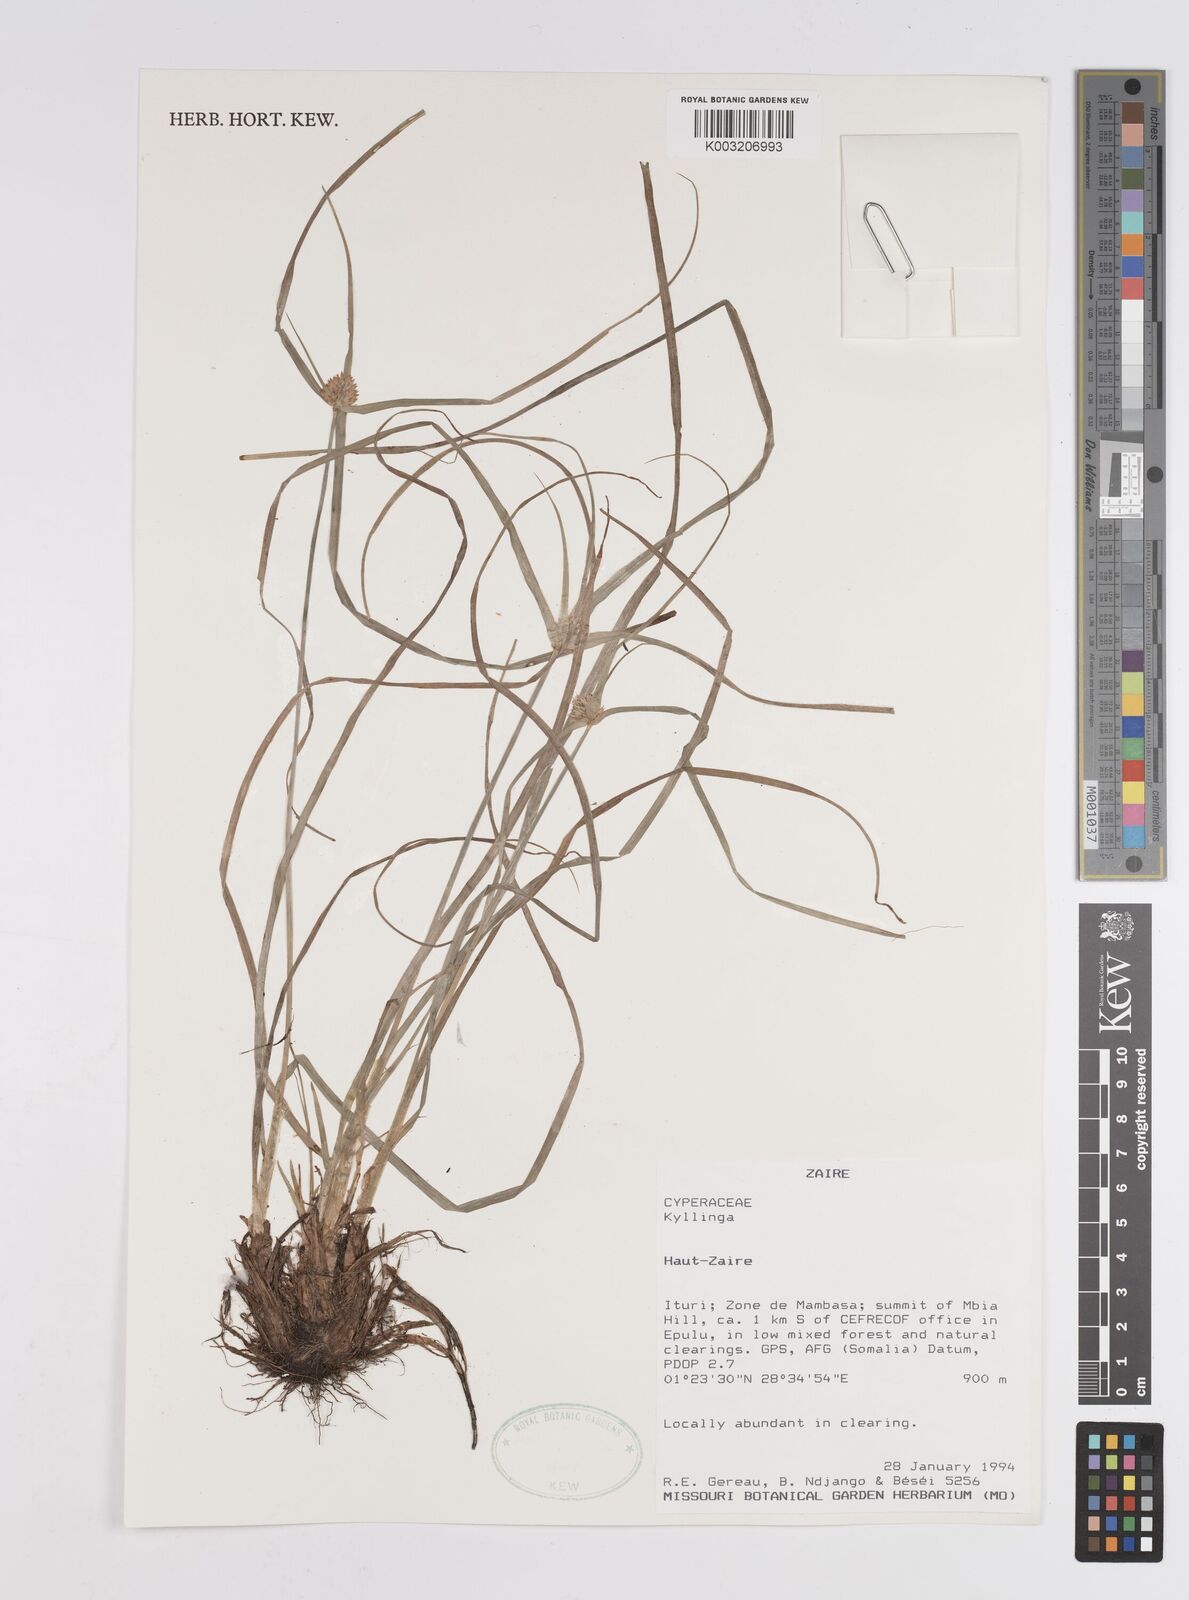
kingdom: Plantae
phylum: Tracheophyta
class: Liliopsida
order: Poales
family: Cyperaceae
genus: Cyperus
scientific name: Cyperus
